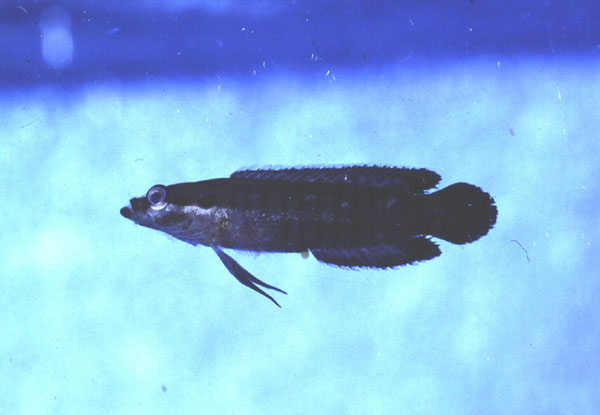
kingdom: Animalia
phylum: Chordata
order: Perciformes
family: Plesiopidae
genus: Belonepterygion
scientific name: Belonepterygion fasciolatum
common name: Barred spiny basslet
